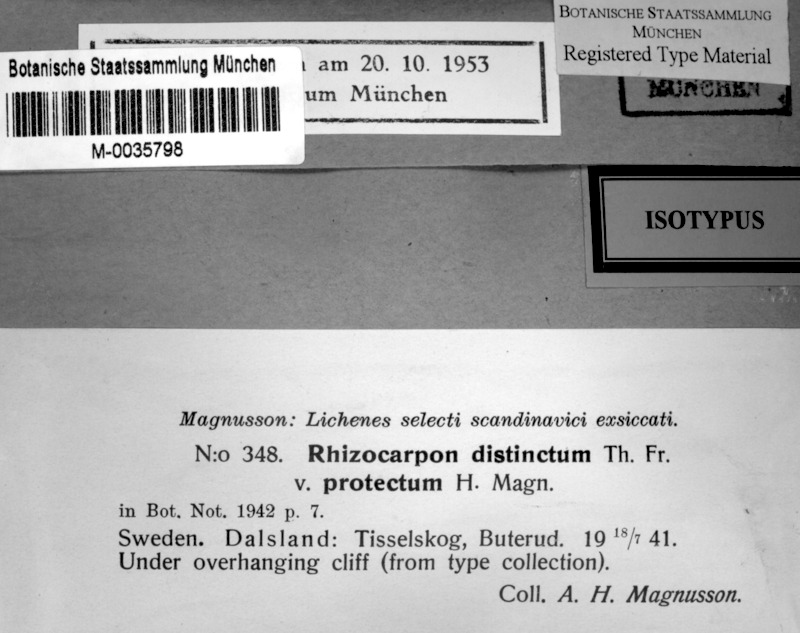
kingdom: Fungi
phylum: Ascomycota
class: Lecanoromycetes
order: Rhizocarpales
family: Rhizocarpaceae
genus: Rhizocarpon
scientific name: Rhizocarpon distinctum
